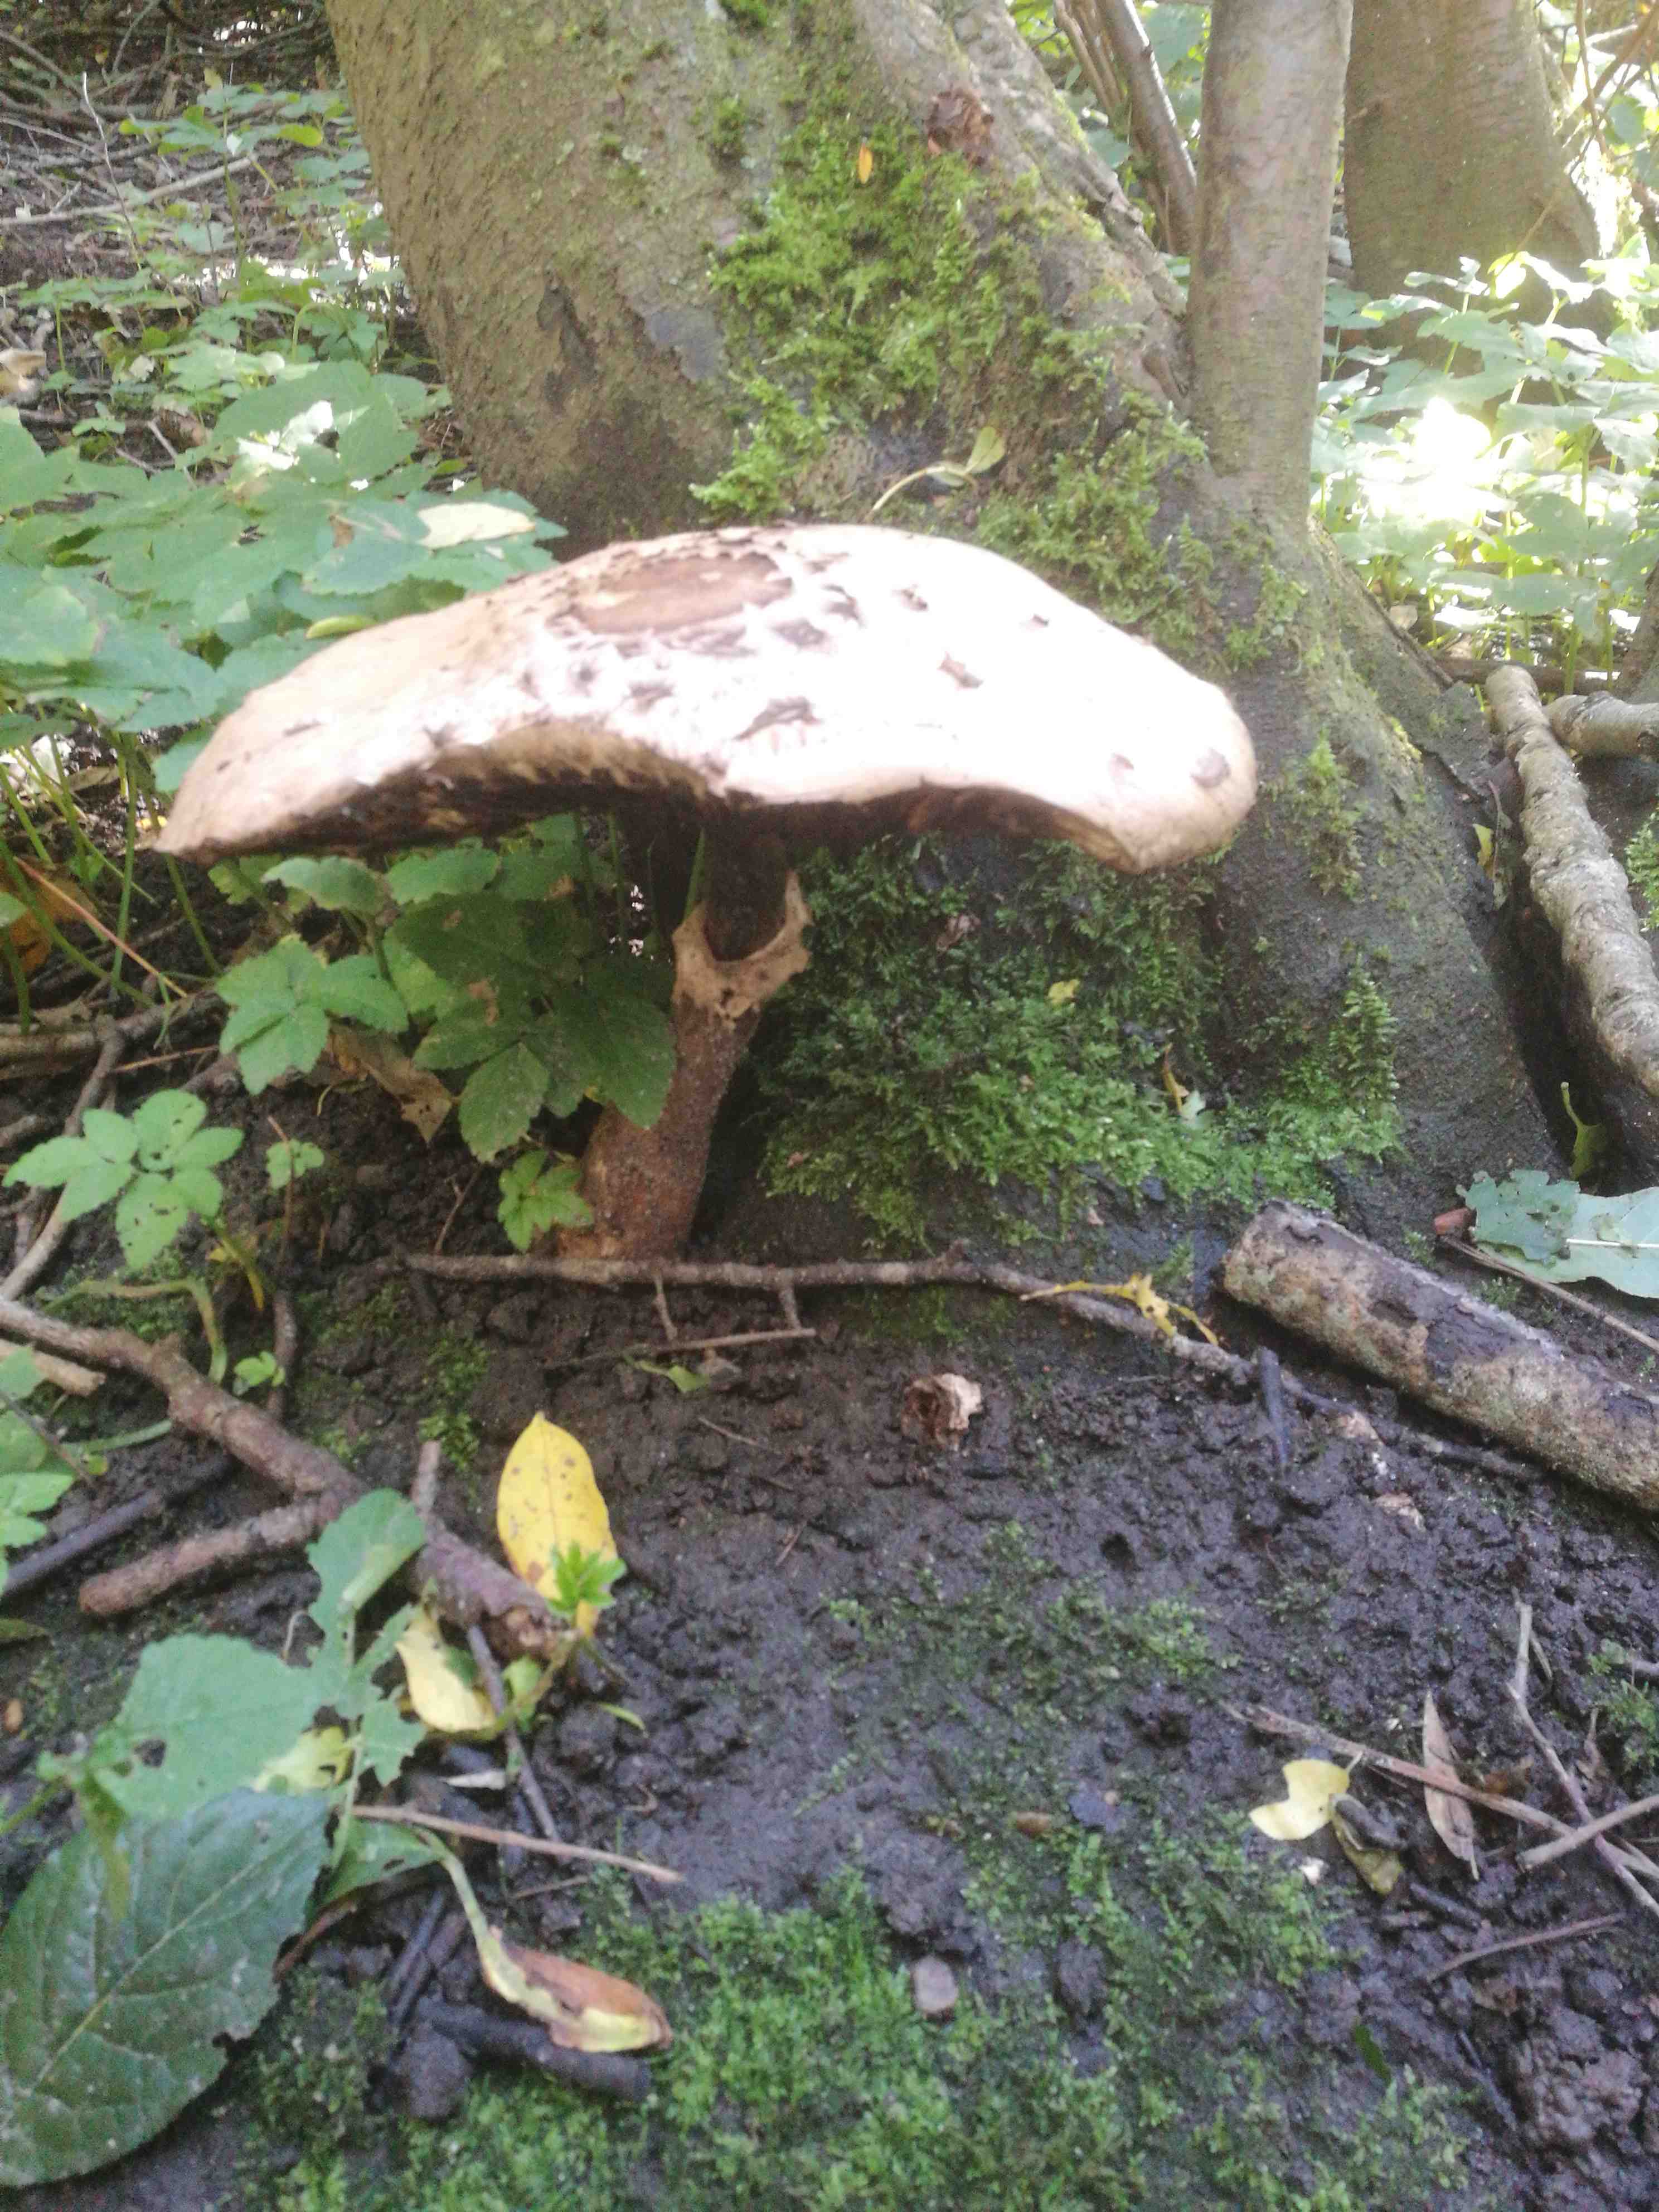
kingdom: Fungi
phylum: Basidiomycota
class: Agaricomycetes
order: Agaricales
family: Agaricaceae
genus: Chlorophyllum
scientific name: Chlorophyllum
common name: rabarberhat
